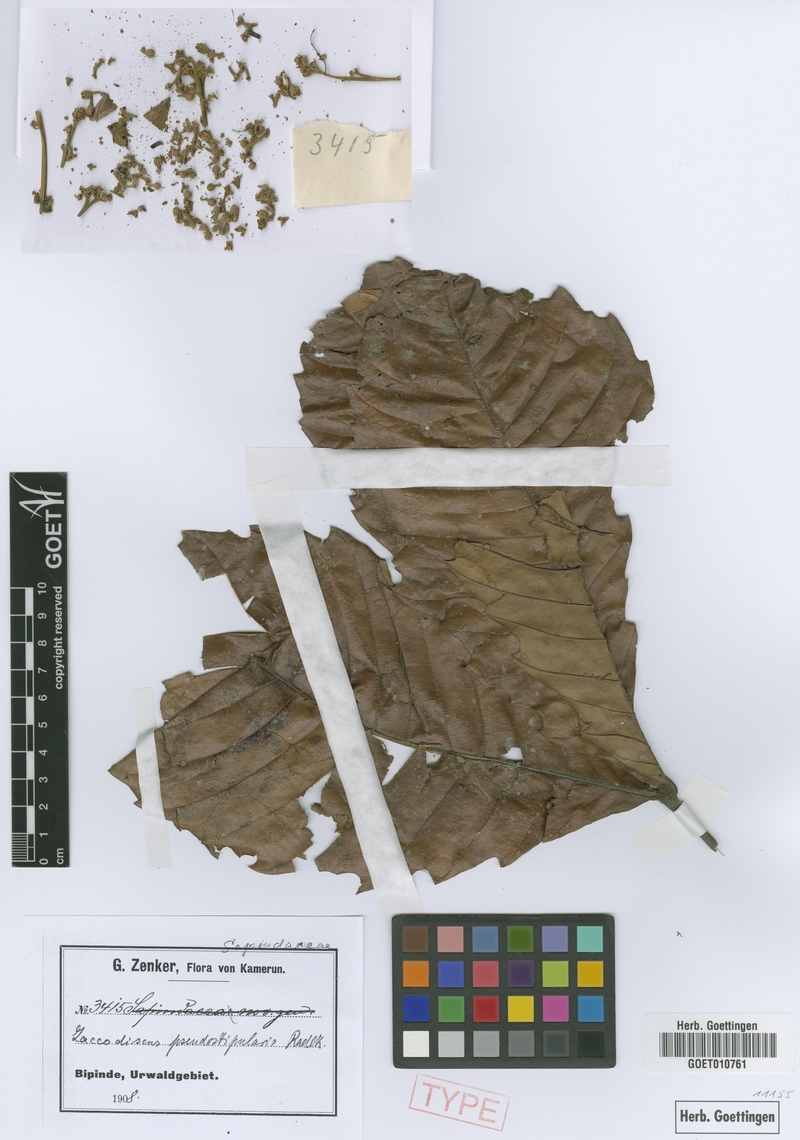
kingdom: Plantae
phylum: Tracheophyta
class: Magnoliopsida
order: Sapindales
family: Sapindaceae
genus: Laccodiscus
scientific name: Laccodiscus pseudostipularis
